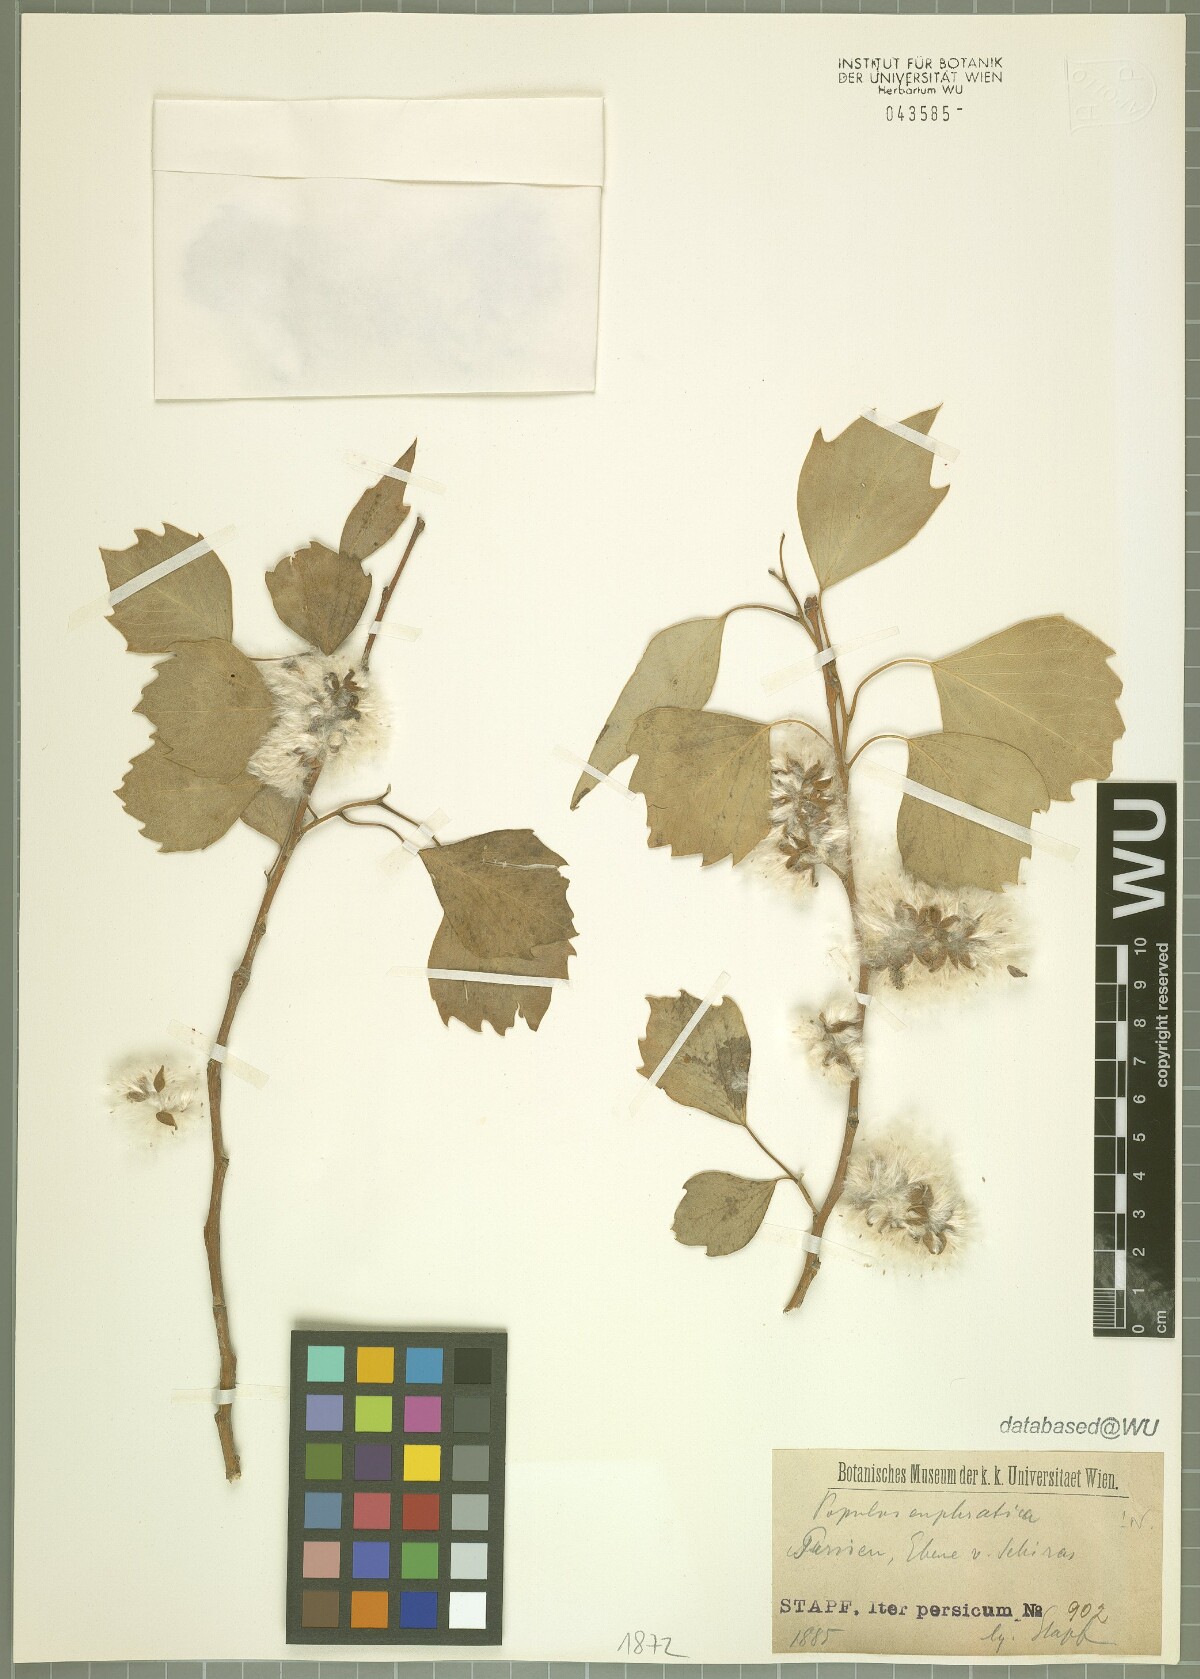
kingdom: Plantae
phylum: Tracheophyta
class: Magnoliopsida
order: Malpighiales
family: Salicaceae
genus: Populus
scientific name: Populus euphratica
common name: Euphrates poplar
